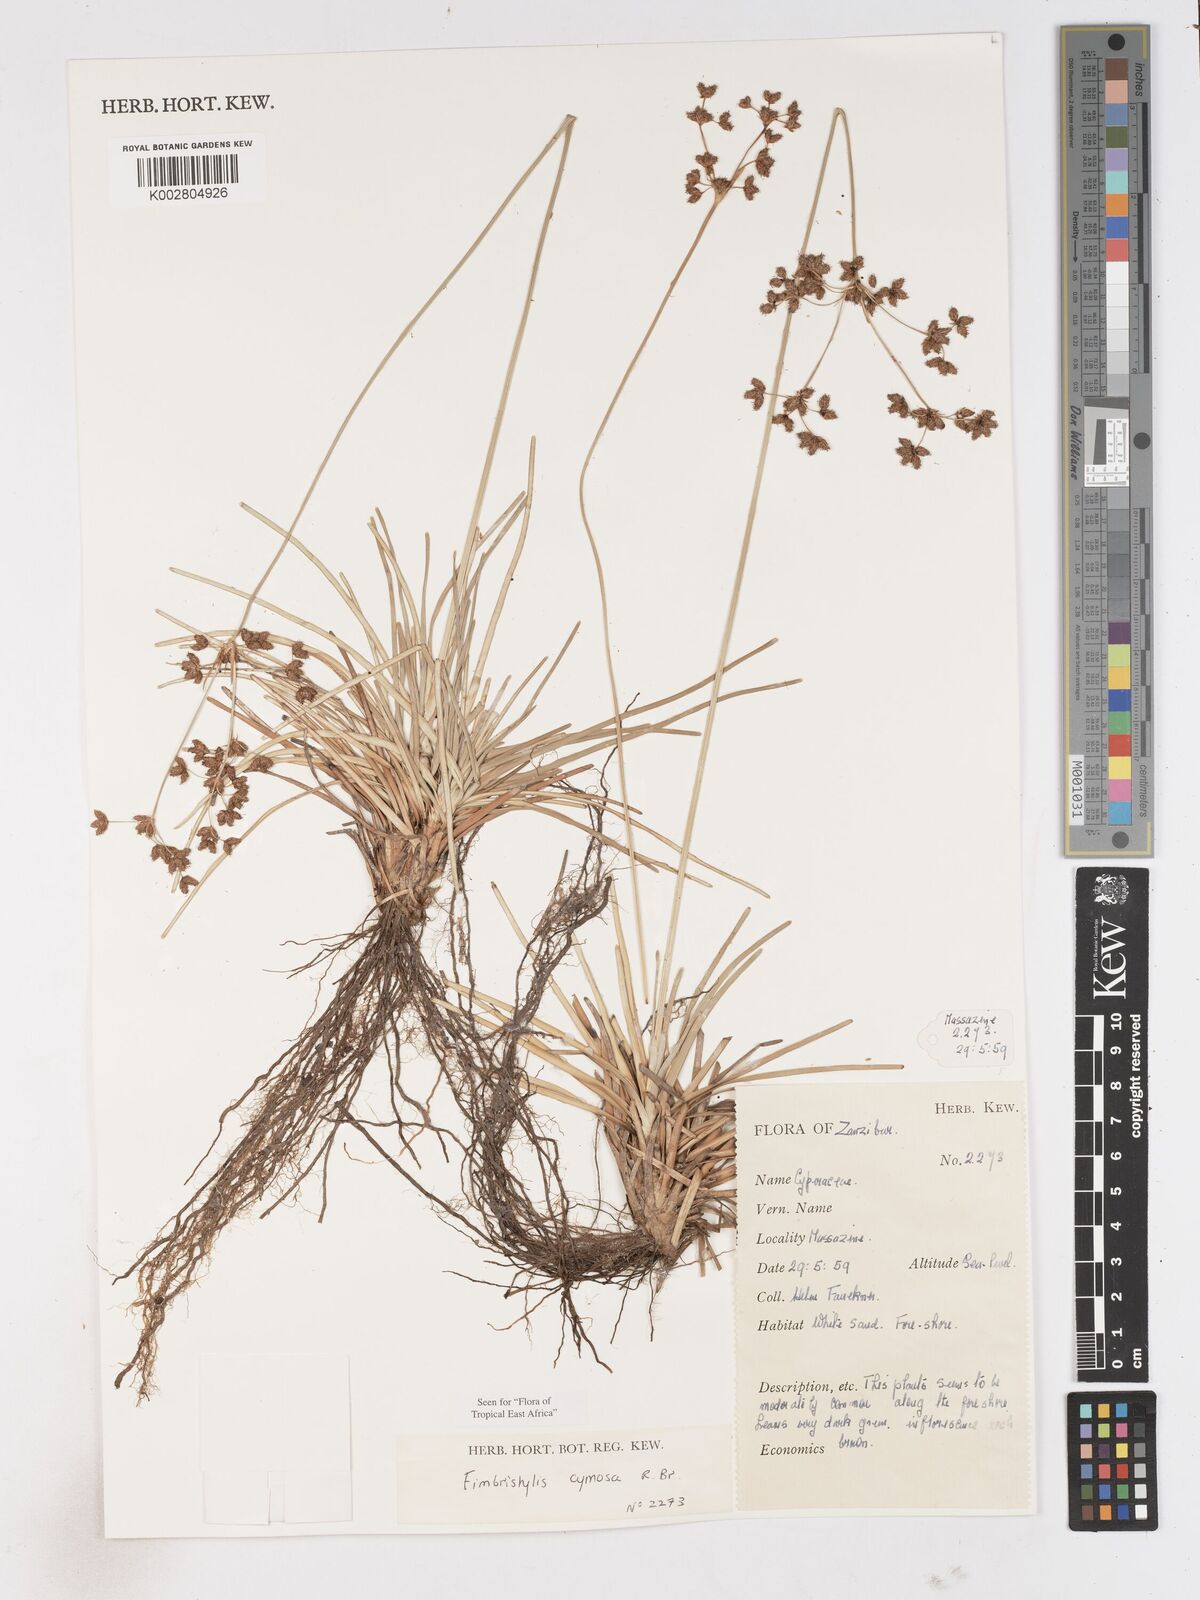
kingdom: Plantae
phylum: Tracheophyta
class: Liliopsida
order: Poales
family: Cyperaceae
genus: Fimbristylis
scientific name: Fimbristylis cymosa
